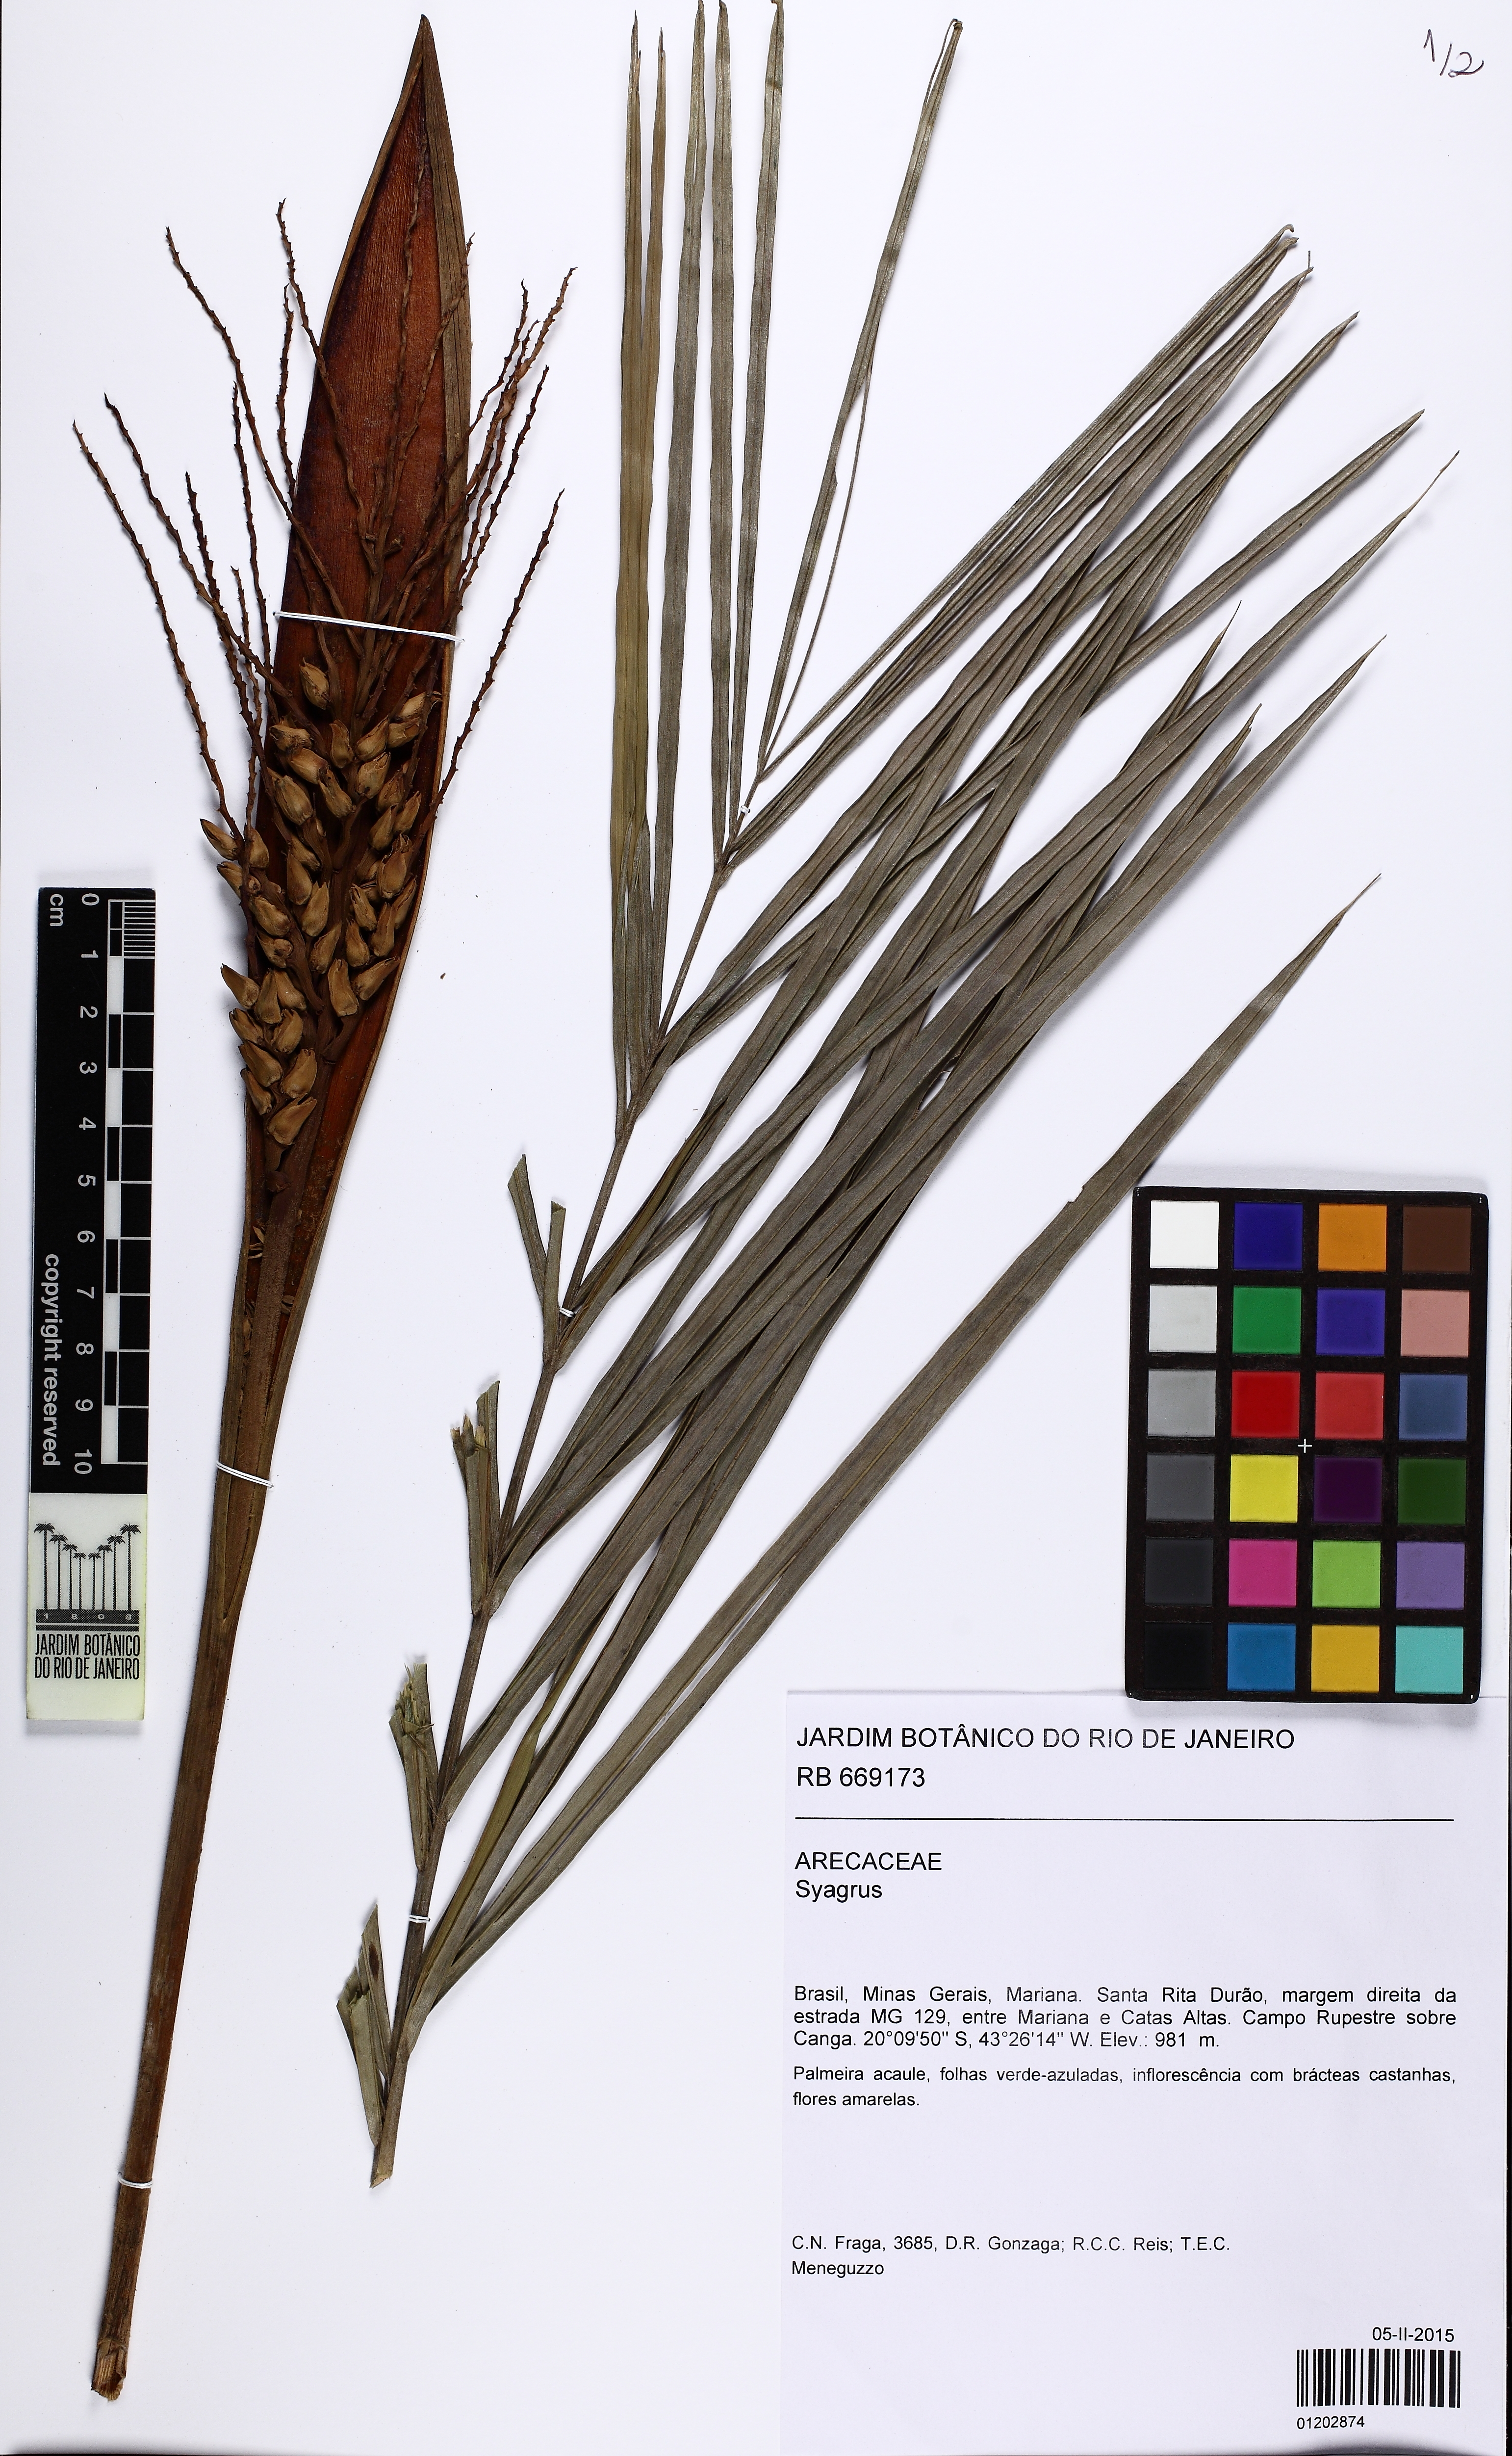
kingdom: Plantae
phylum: Tracheophyta
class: Liliopsida
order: Arecales
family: Arecaceae
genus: Syagrus
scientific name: Syagrus
